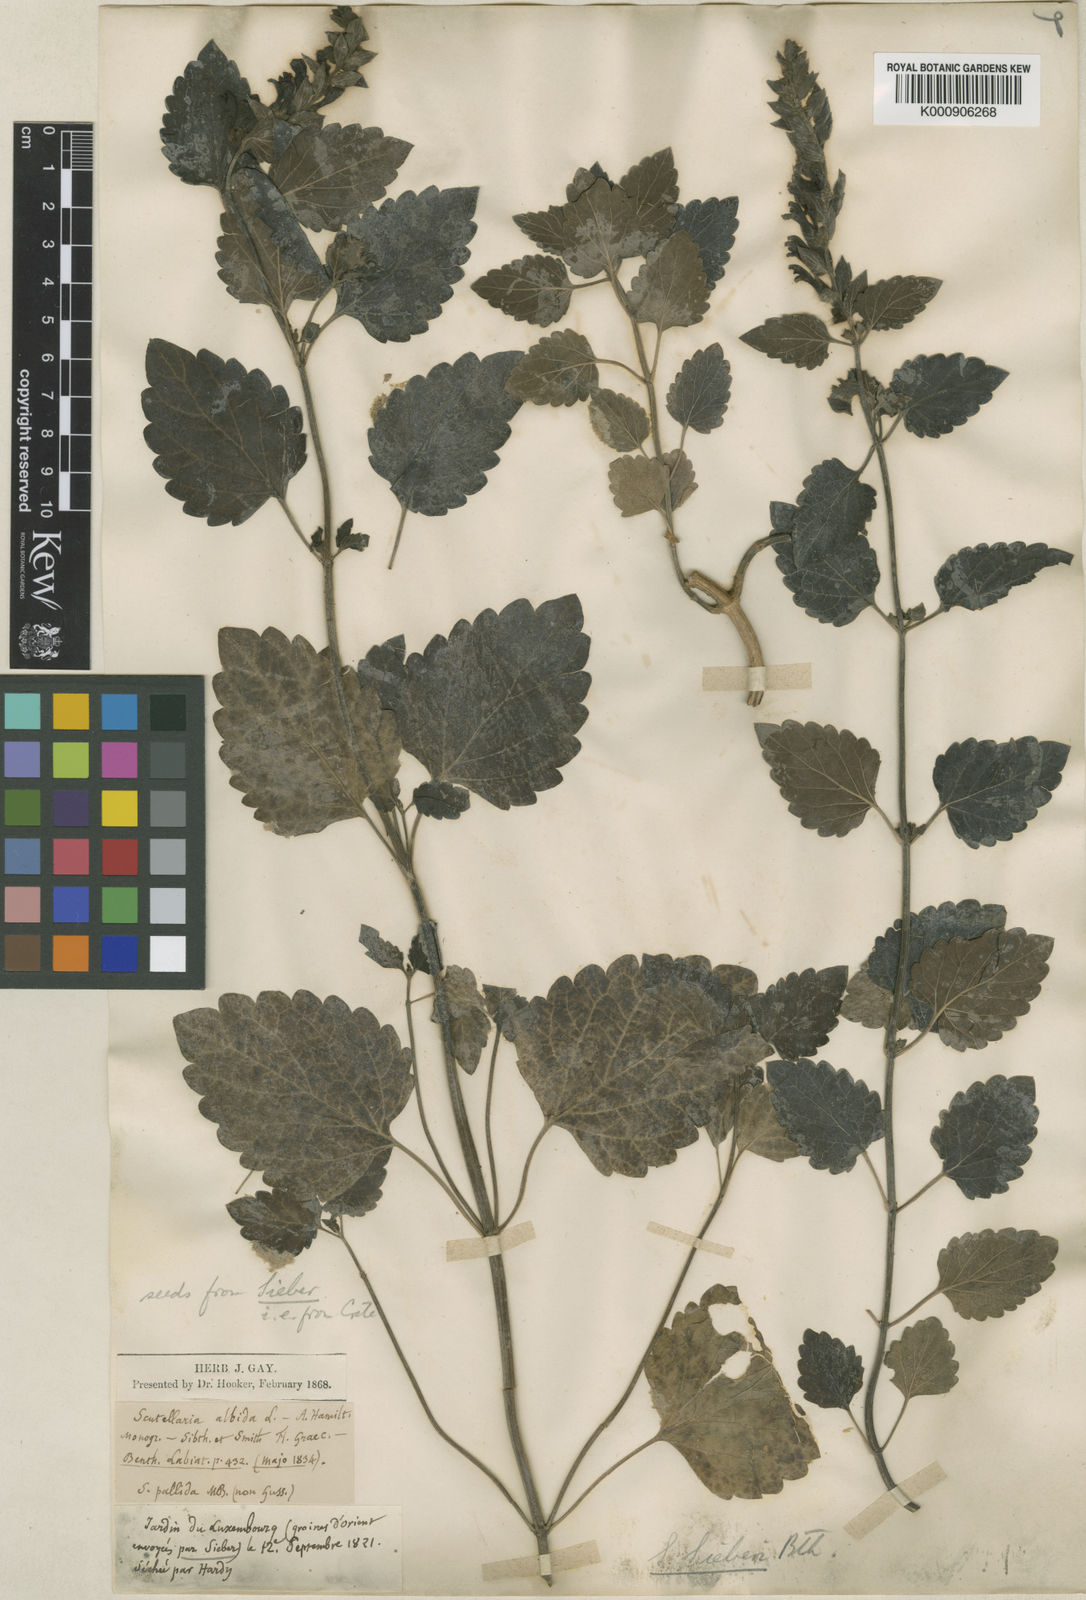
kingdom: Plantae
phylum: Tracheophyta
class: Magnoliopsida
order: Lamiales
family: Lamiaceae
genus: Scutellaria
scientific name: Scutellaria sieberi
